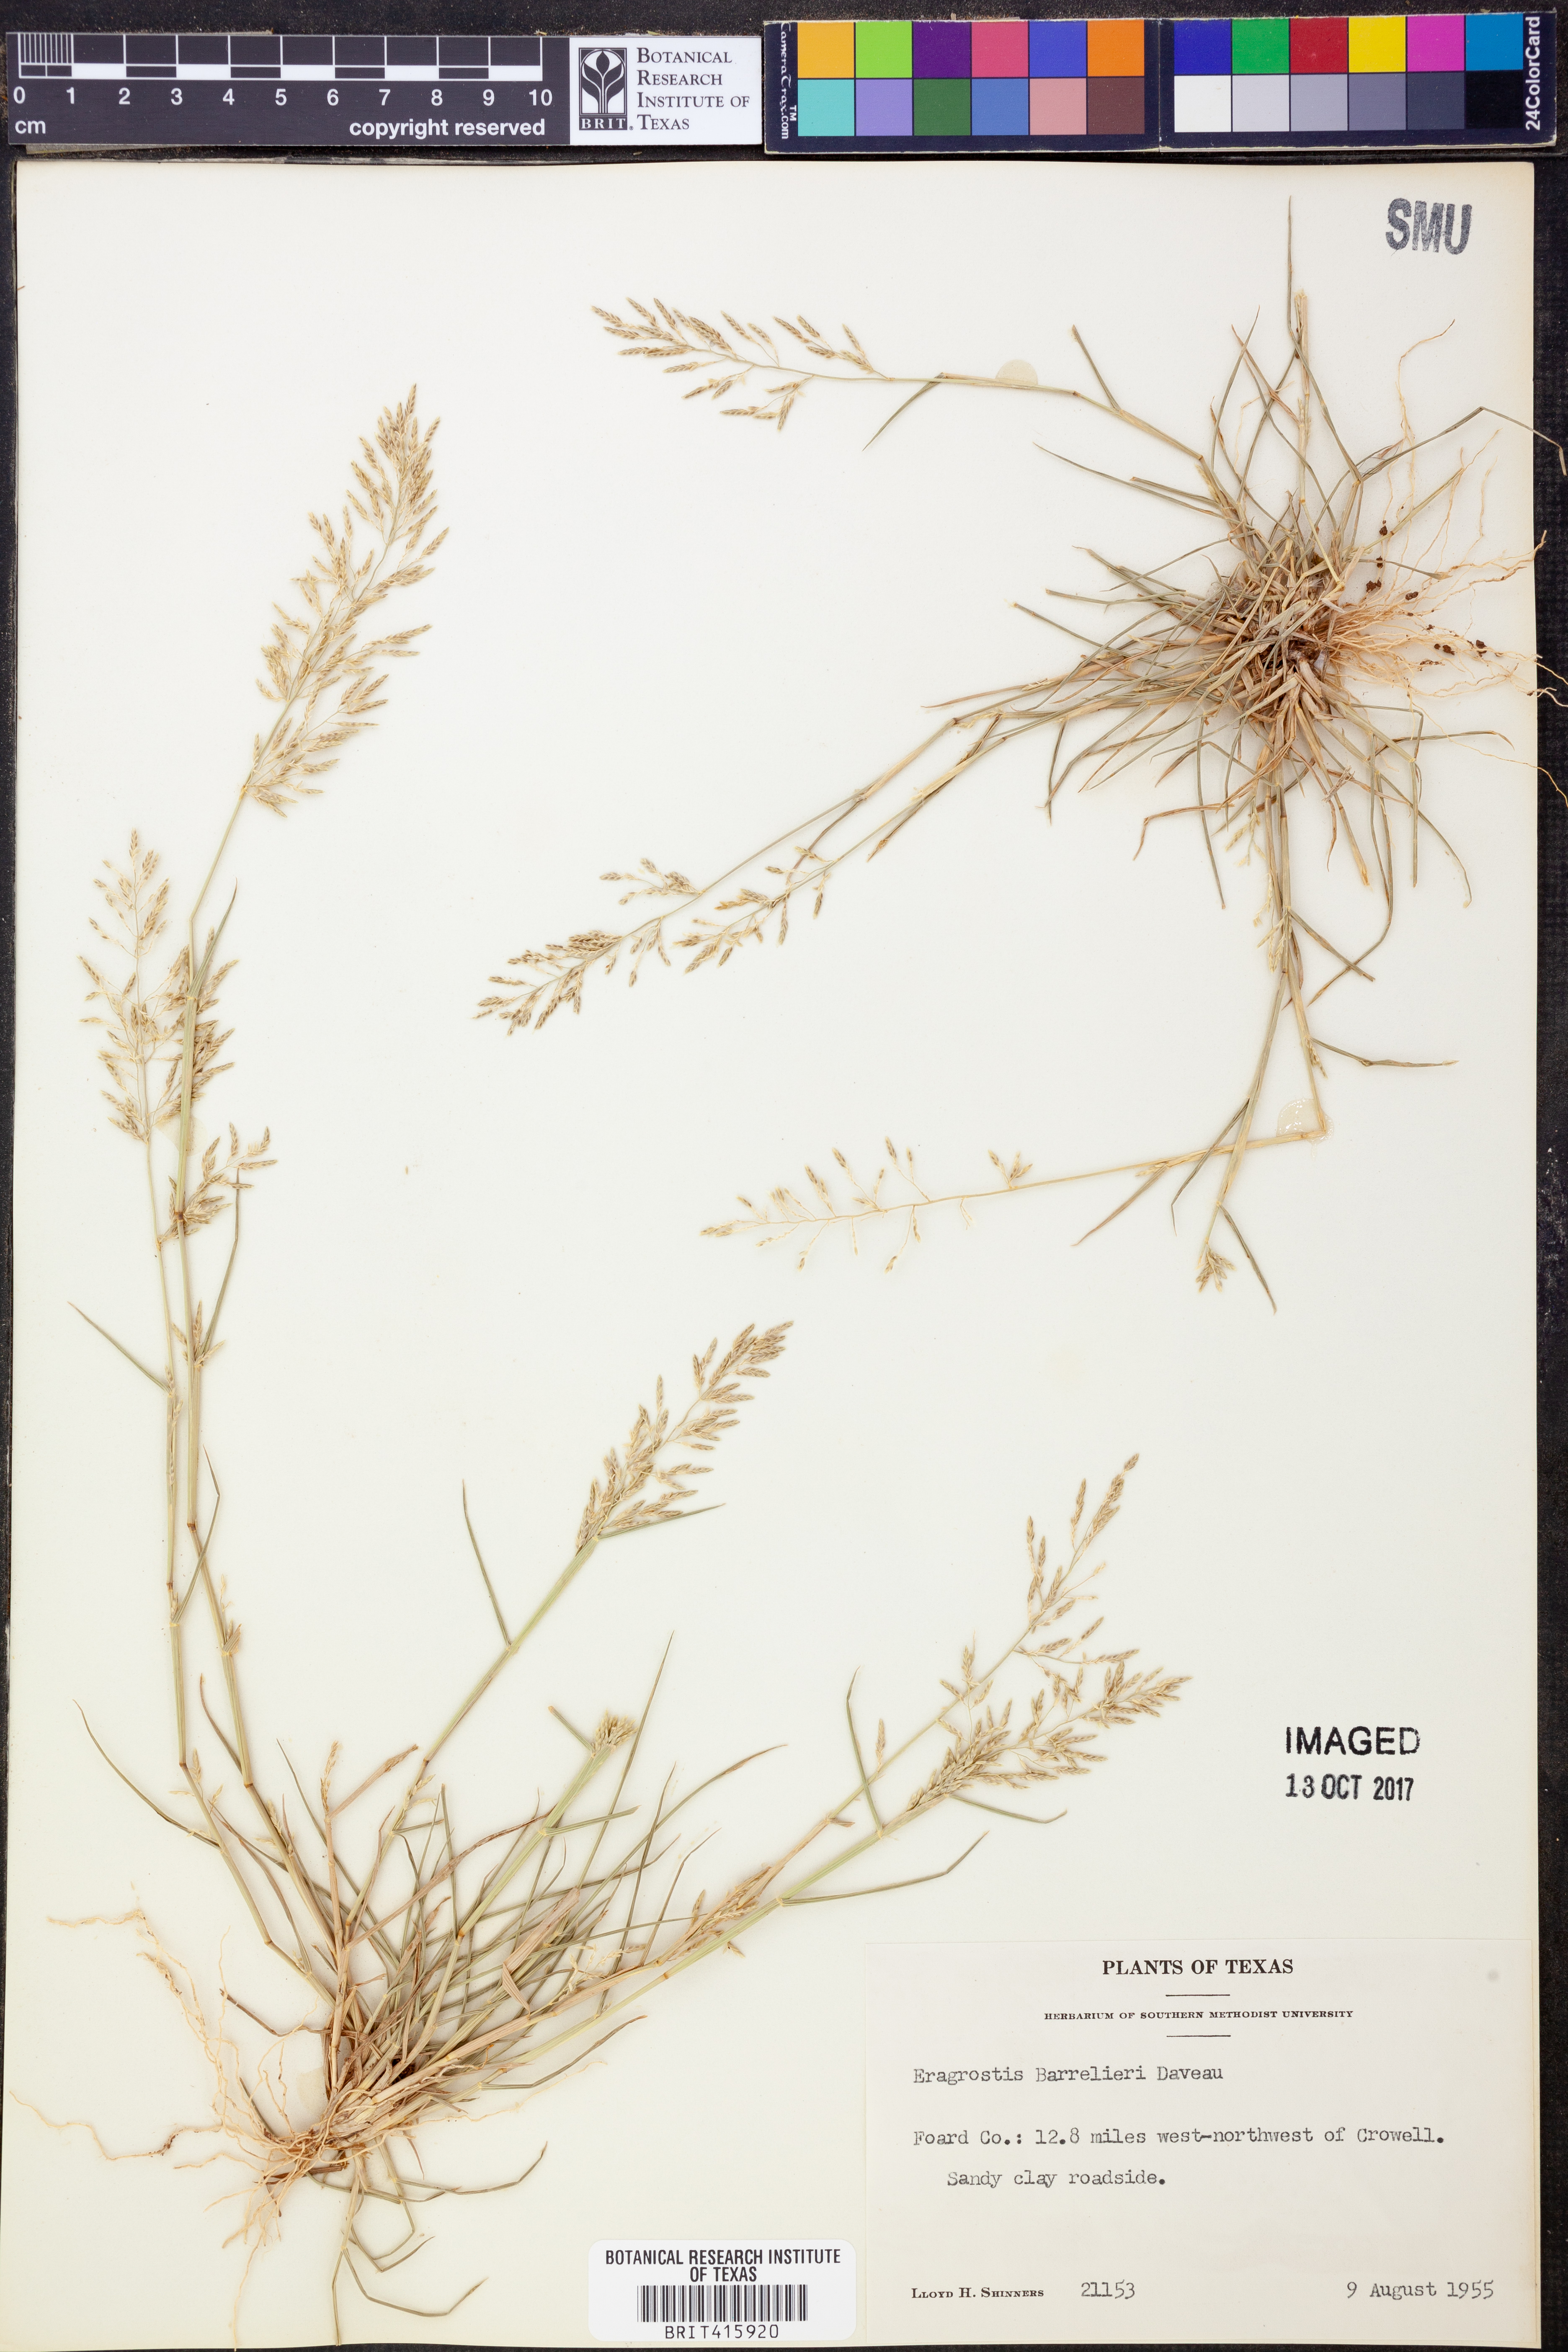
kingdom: Plantae
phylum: Tracheophyta
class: Liliopsida
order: Poales
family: Poaceae
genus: Eragrostis
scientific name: Eragrostis barrelieri
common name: Mediterranean lovegrass
